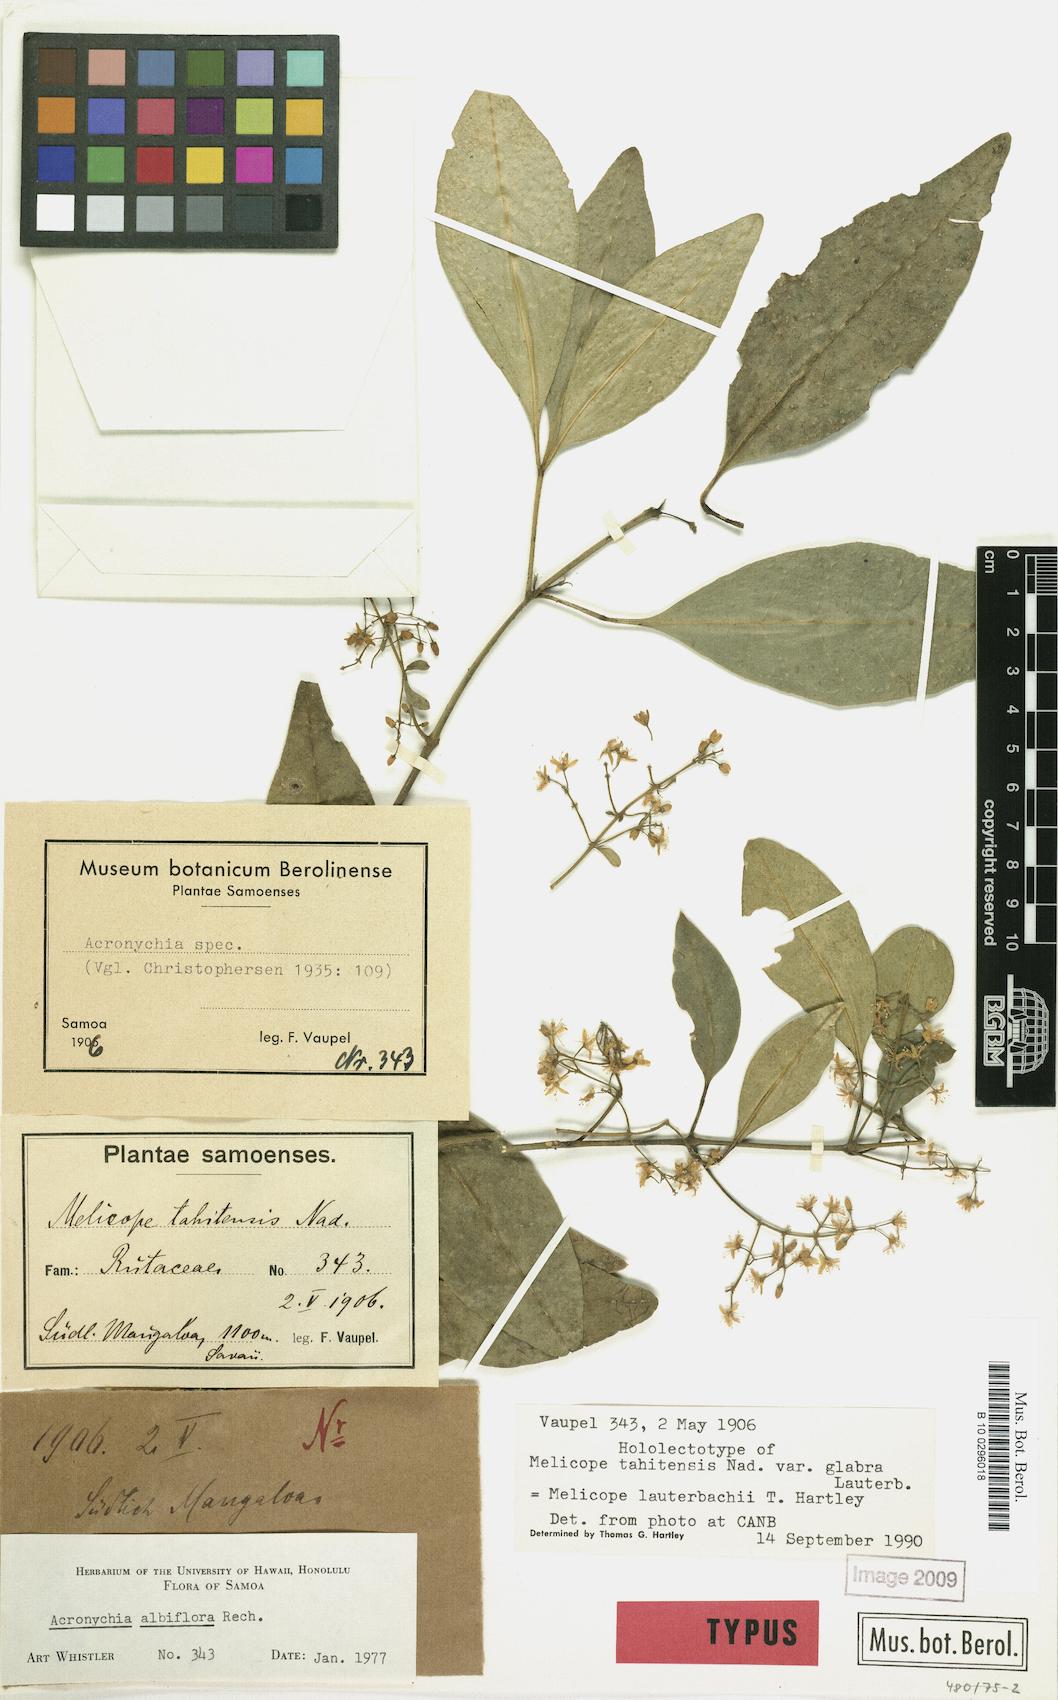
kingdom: Plantae
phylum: Tracheophyta
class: Magnoliopsida
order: Sapindales
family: Rutaceae
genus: Melicope
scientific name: Melicope lauterbachii
